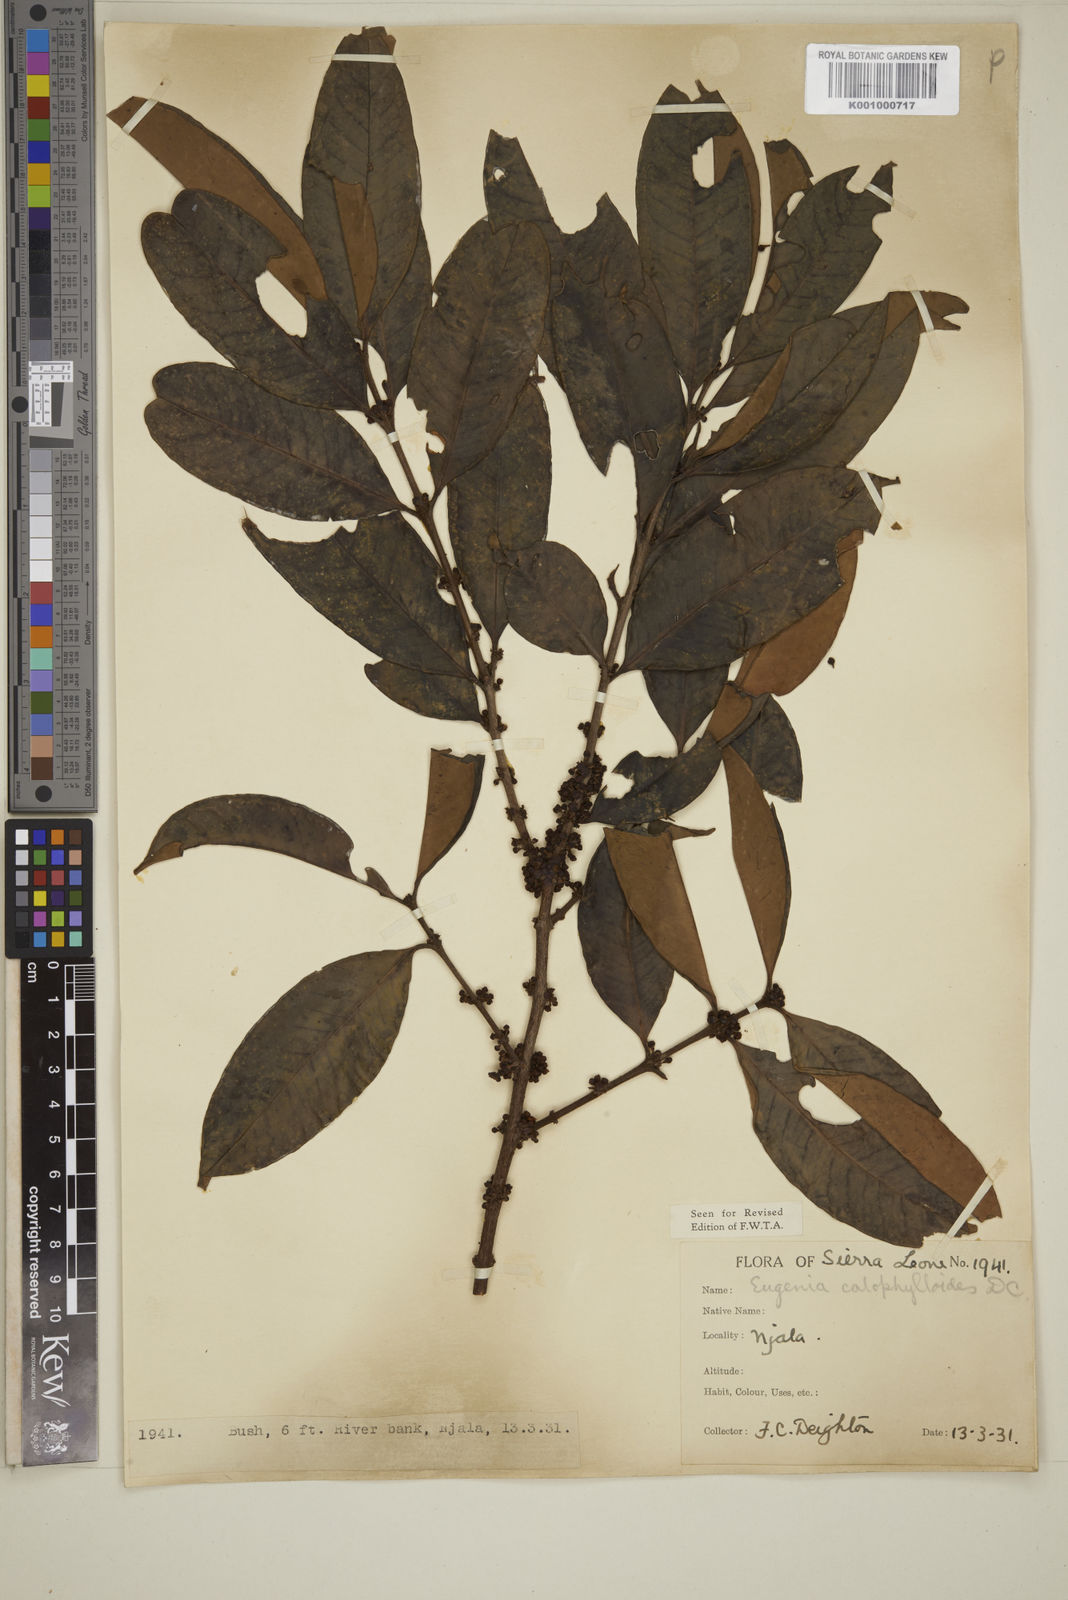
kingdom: Plantae
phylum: Tracheophyta
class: Magnoliopsida
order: Myrtales
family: Myrtaceae
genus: Eugenia
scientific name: Eugenia calophylloides
